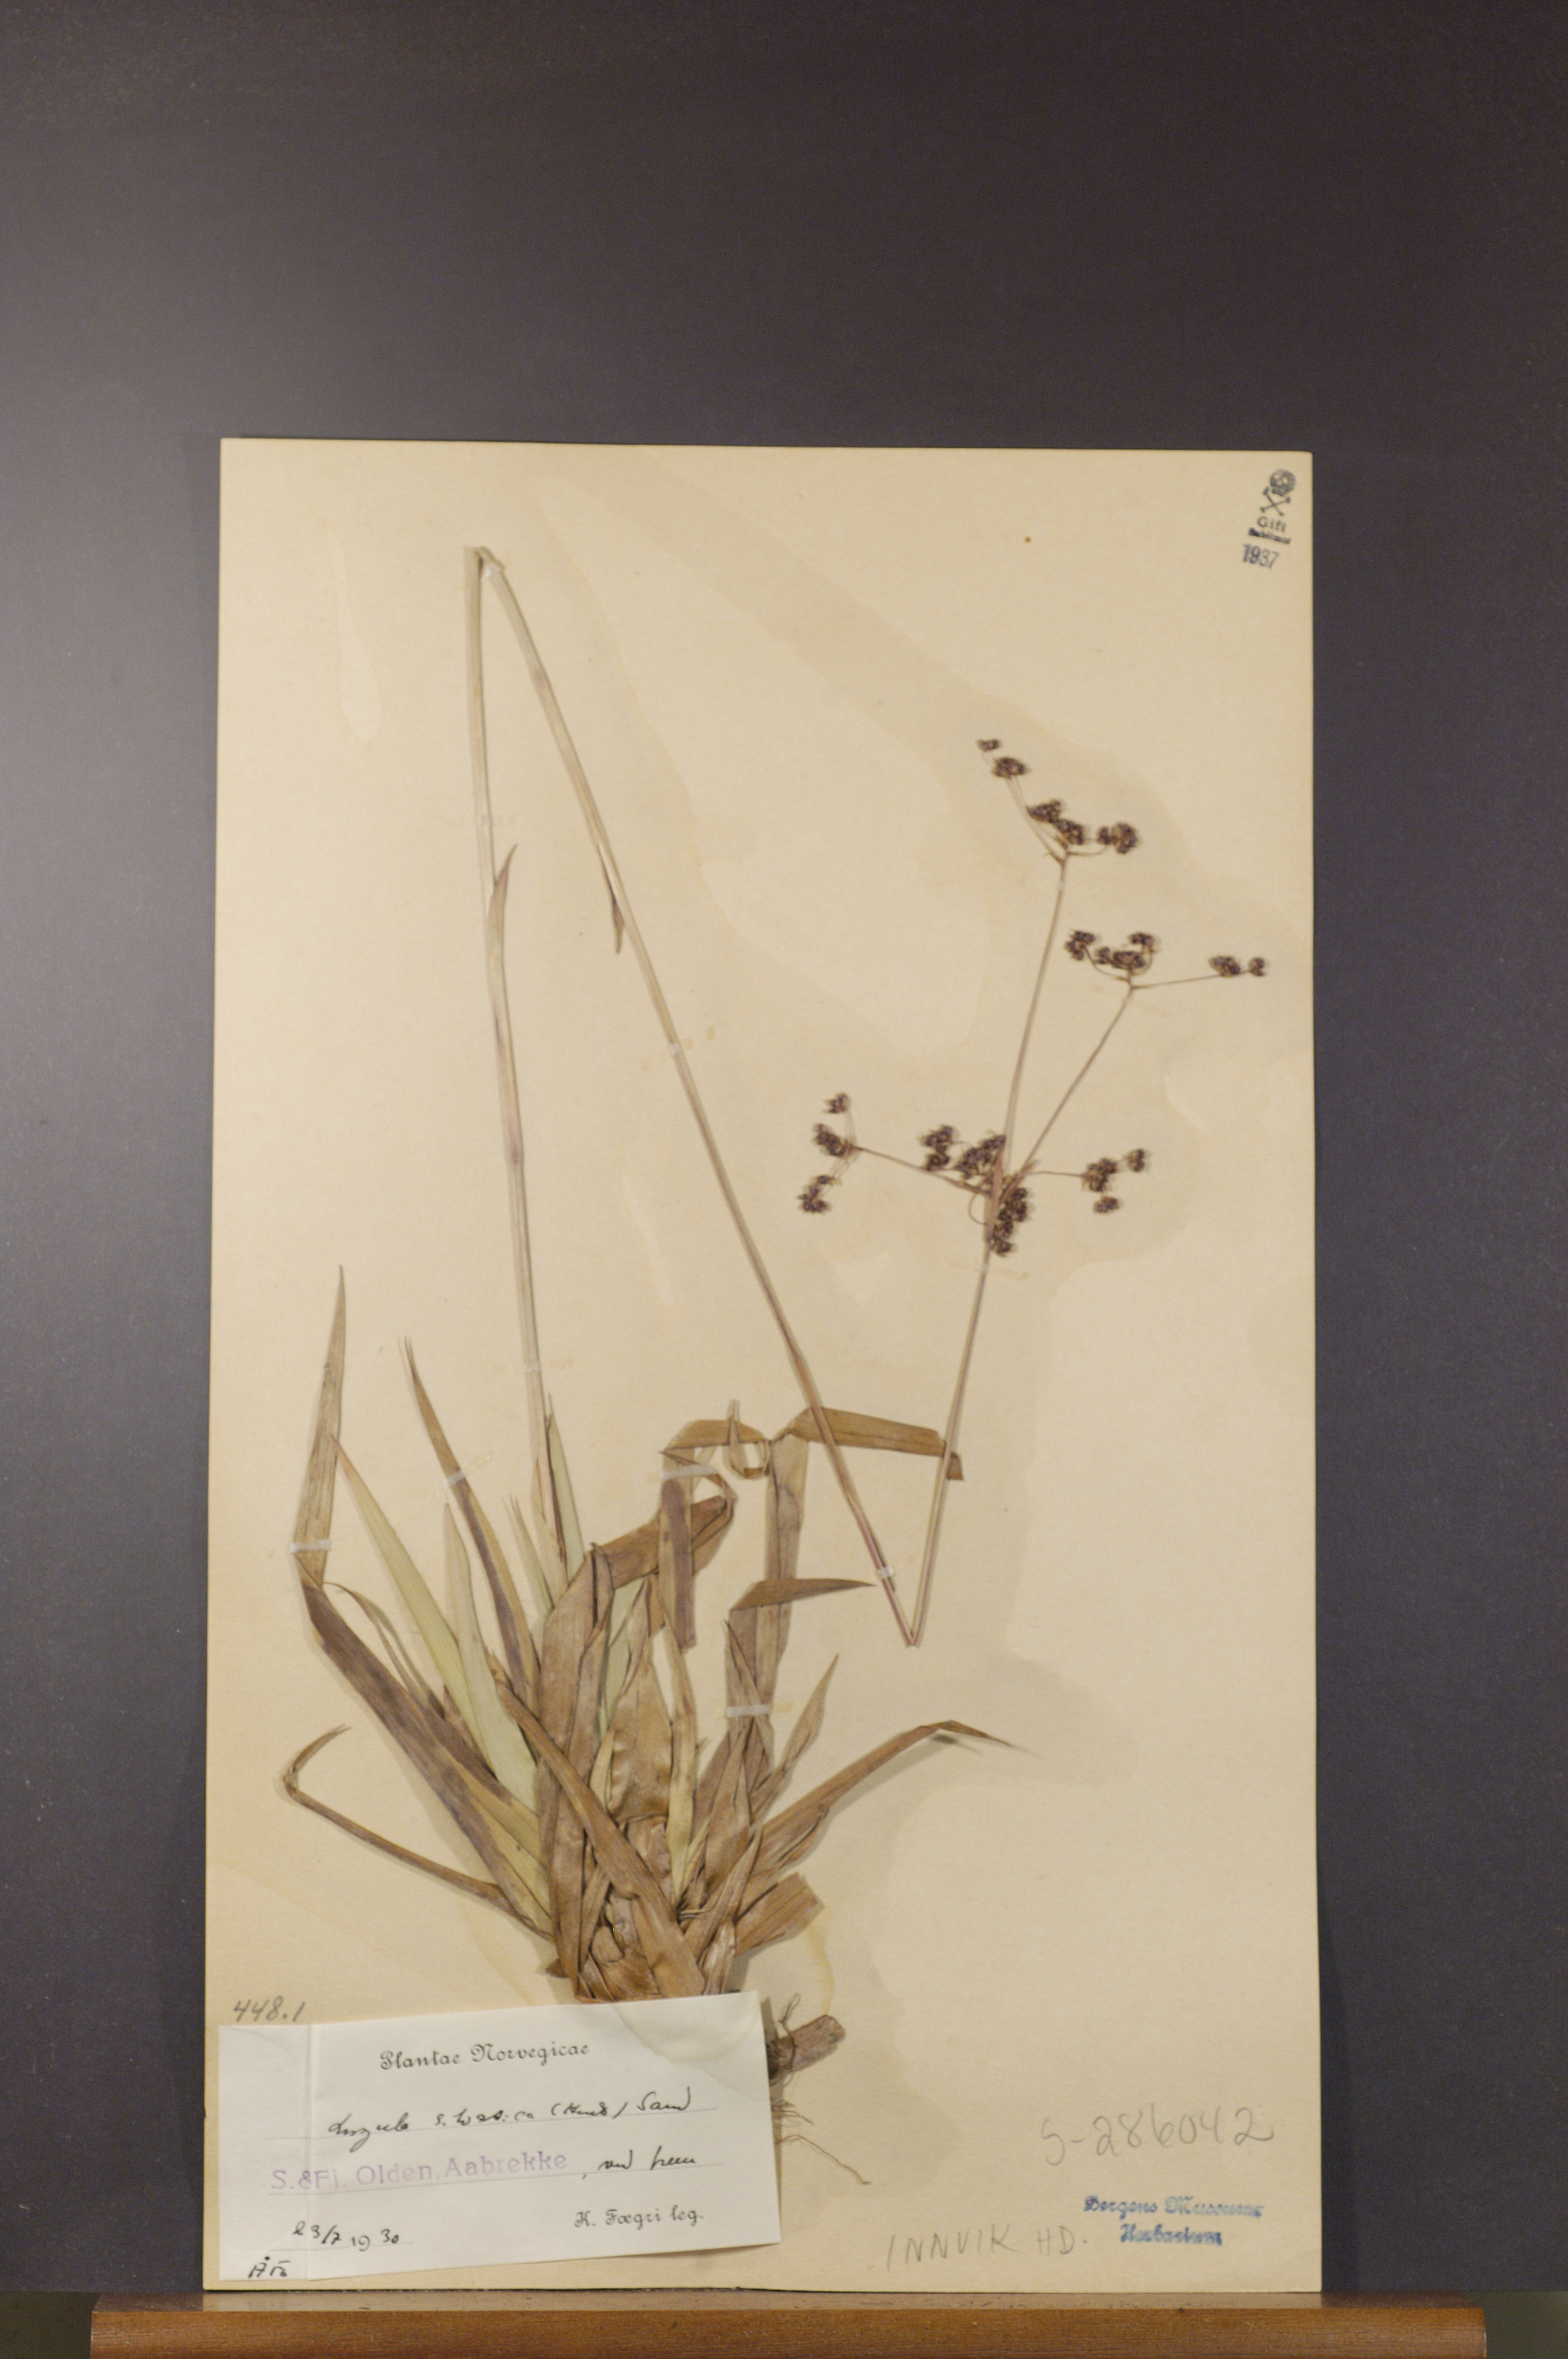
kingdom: Plantae
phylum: Tracheophyta
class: Liliopsida
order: Poales
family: Juncaceae
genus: Luzula
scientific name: Luzula sylvatica
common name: Great wood-rush
